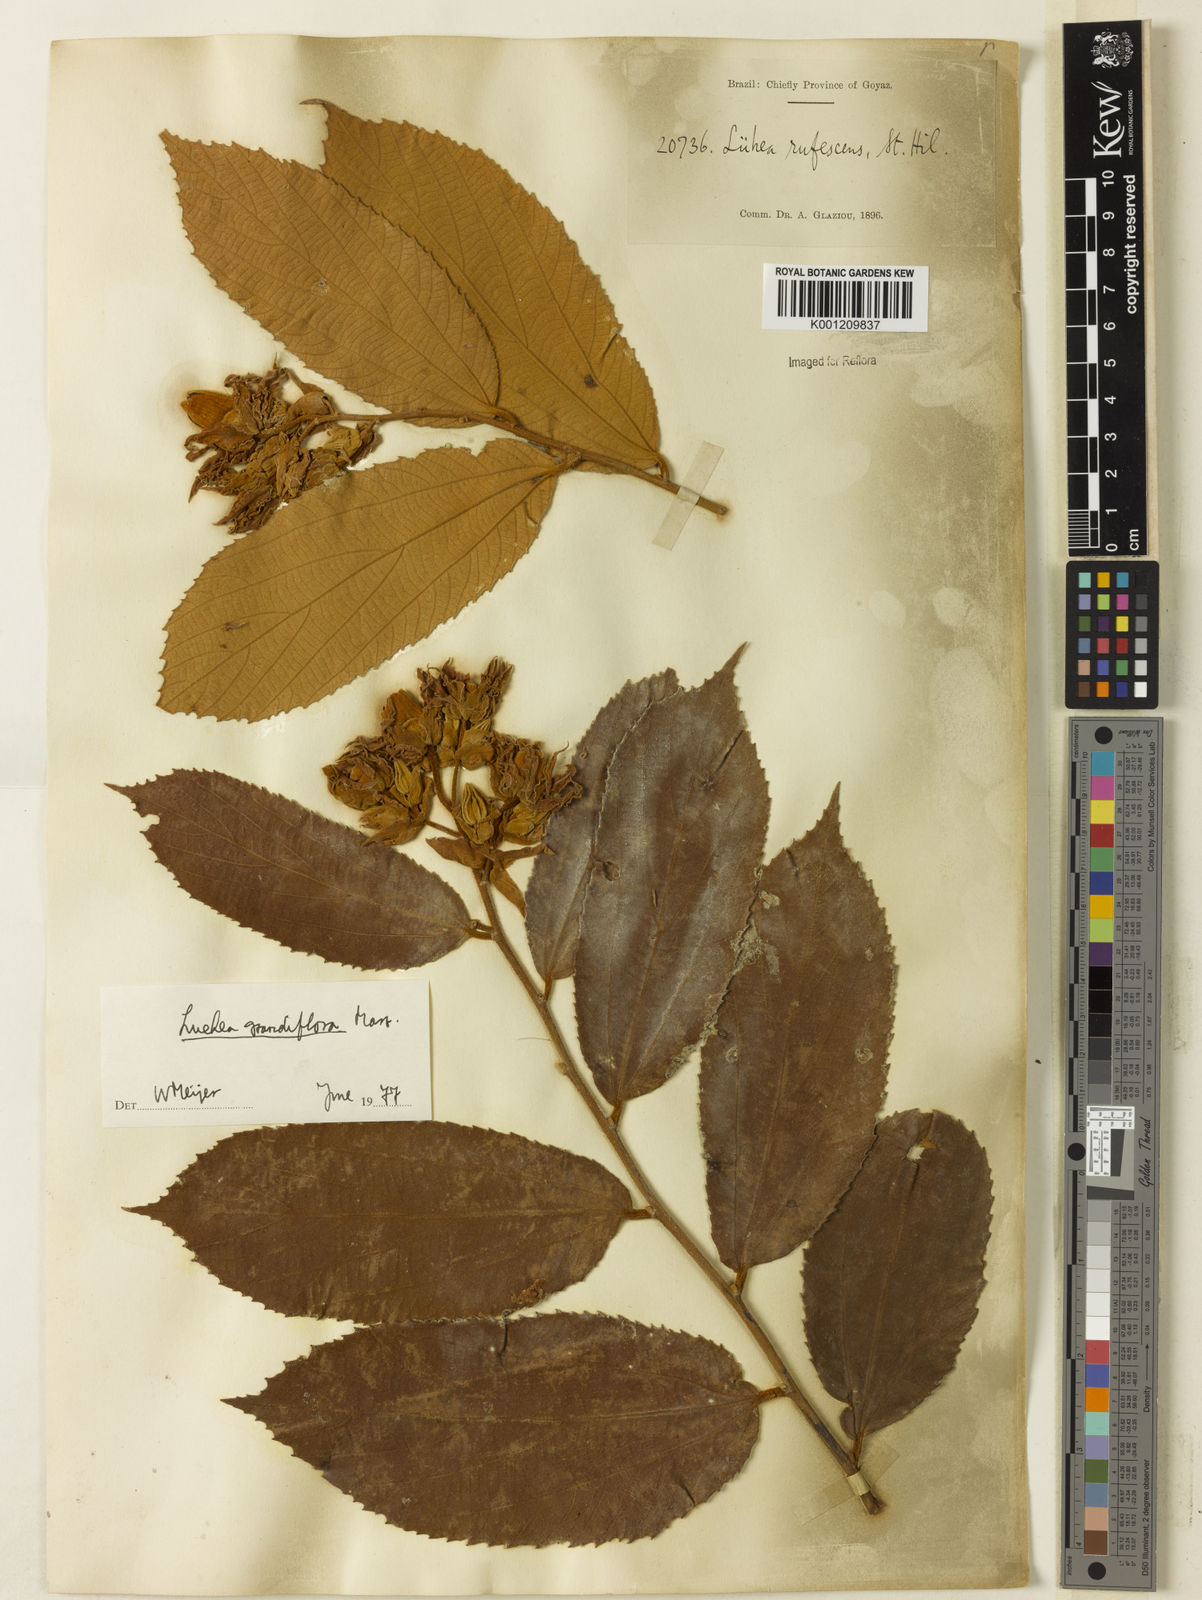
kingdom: Plantae
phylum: Tracheophyta
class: Magnoliopsida
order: Malvales
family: Malvaceae
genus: Luehea
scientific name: Luehea grandiflora
